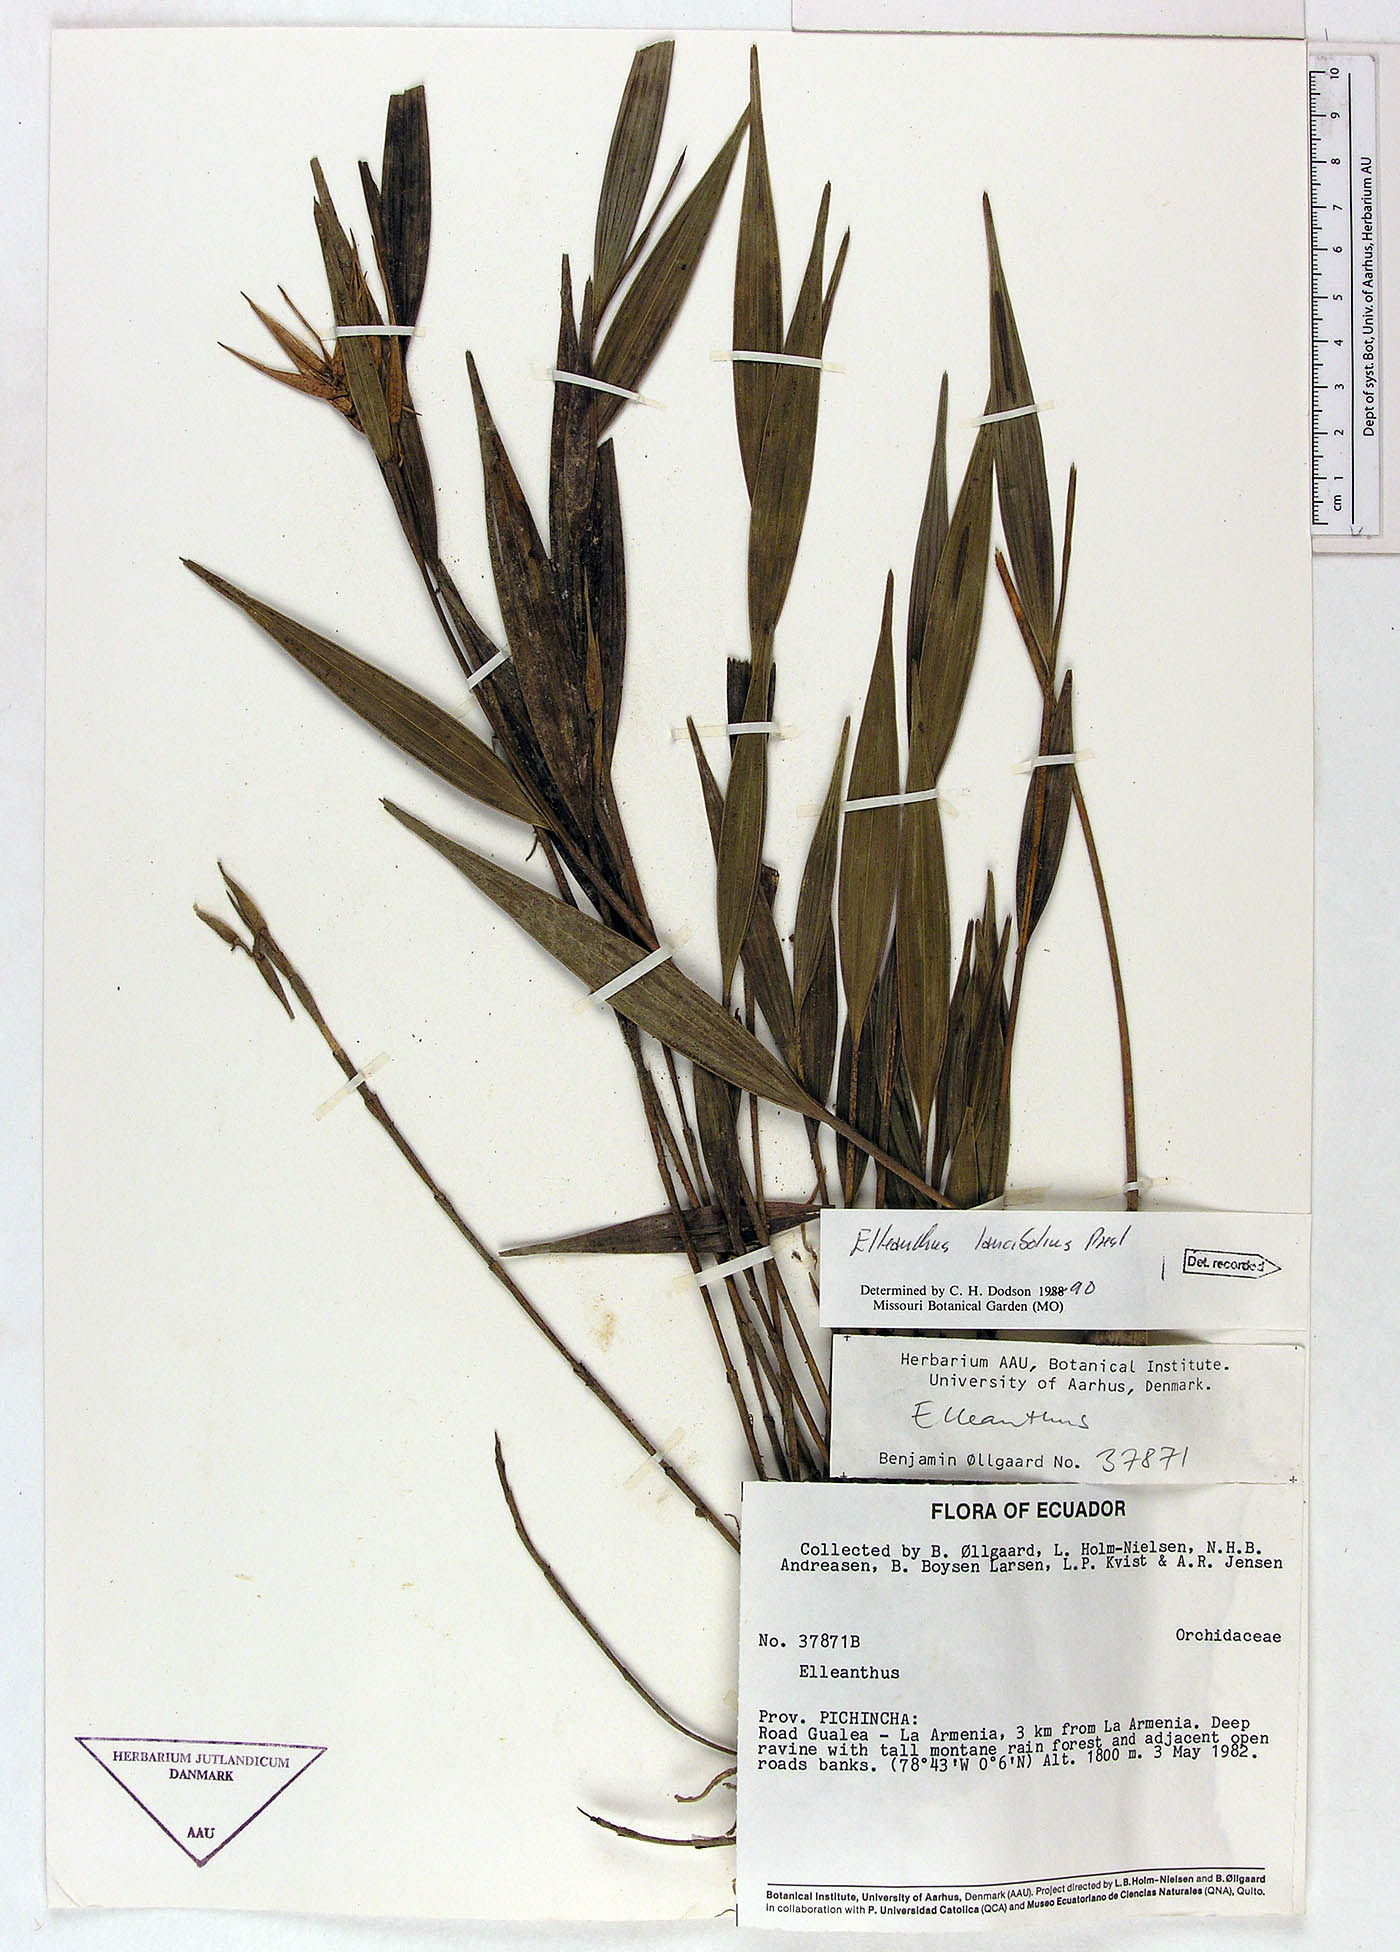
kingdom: Plantae
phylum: Tracheophyta
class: Liliopsida
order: Asparagales
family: Orchidaceae
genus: Elleanthus
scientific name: Elleanthus lancifolius
